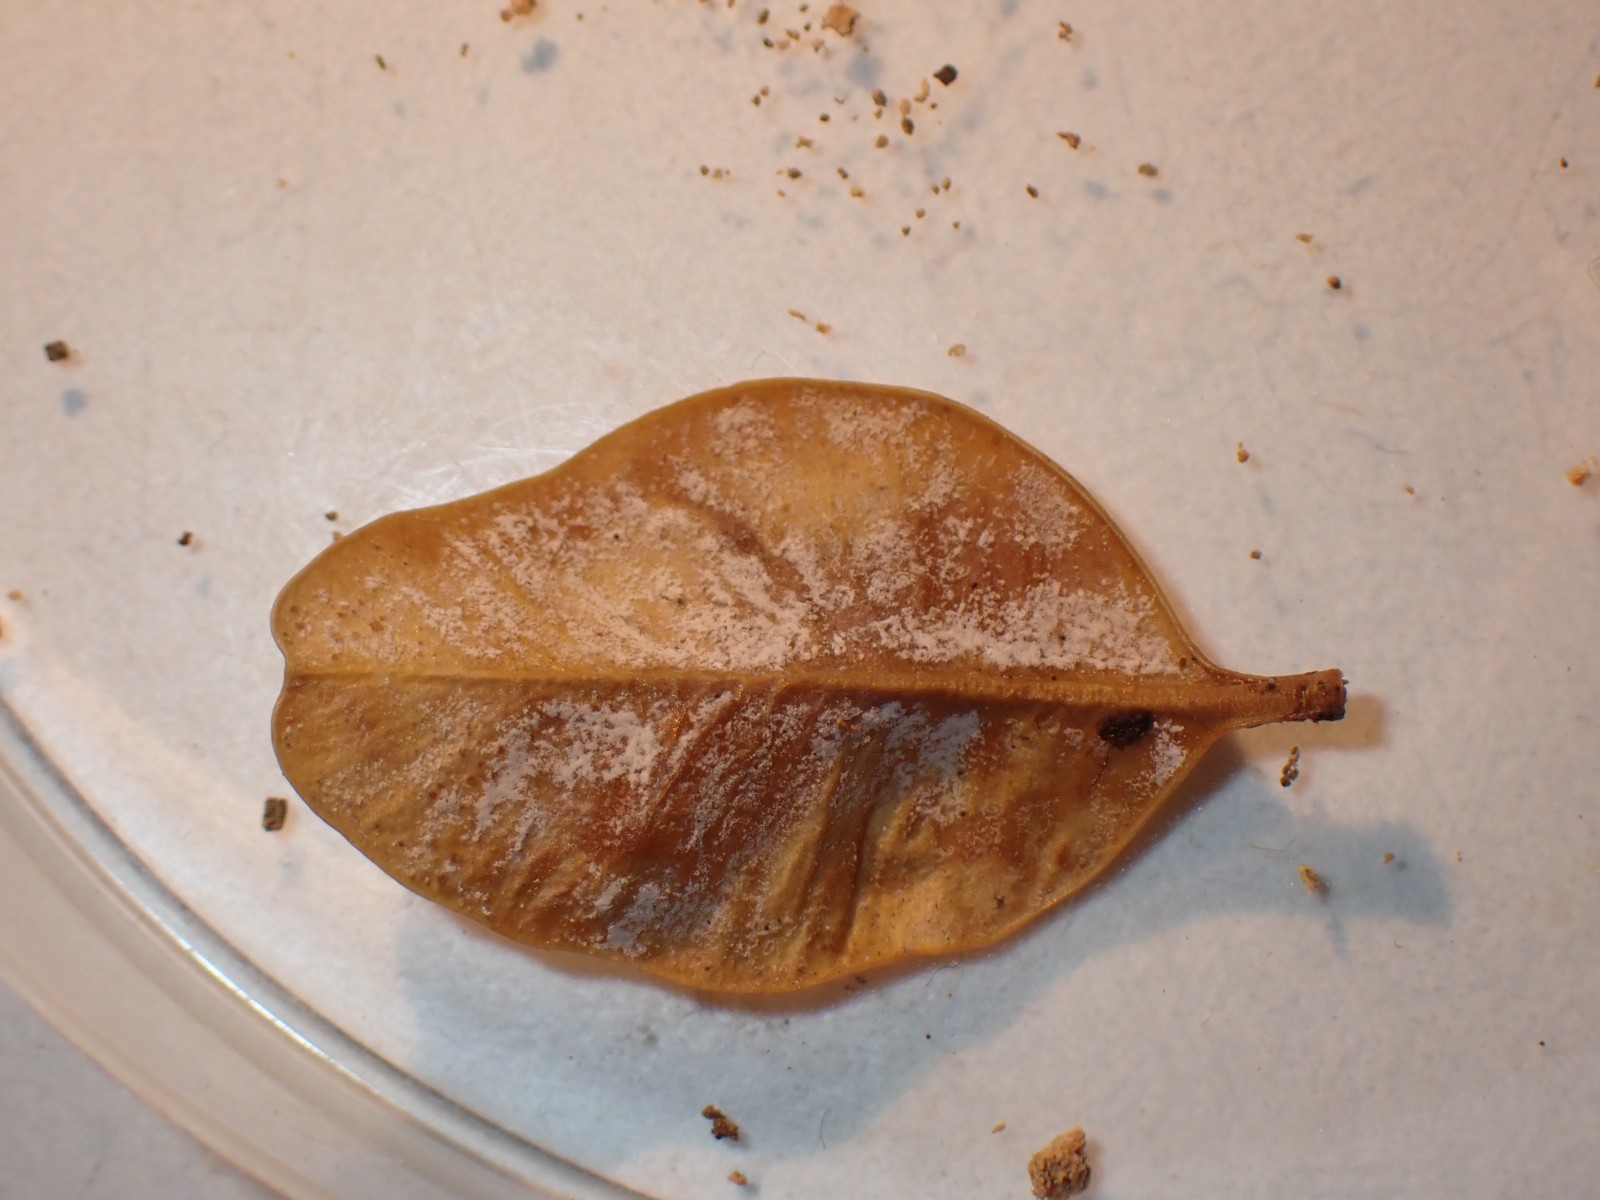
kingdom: Fungi
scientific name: Fungi
